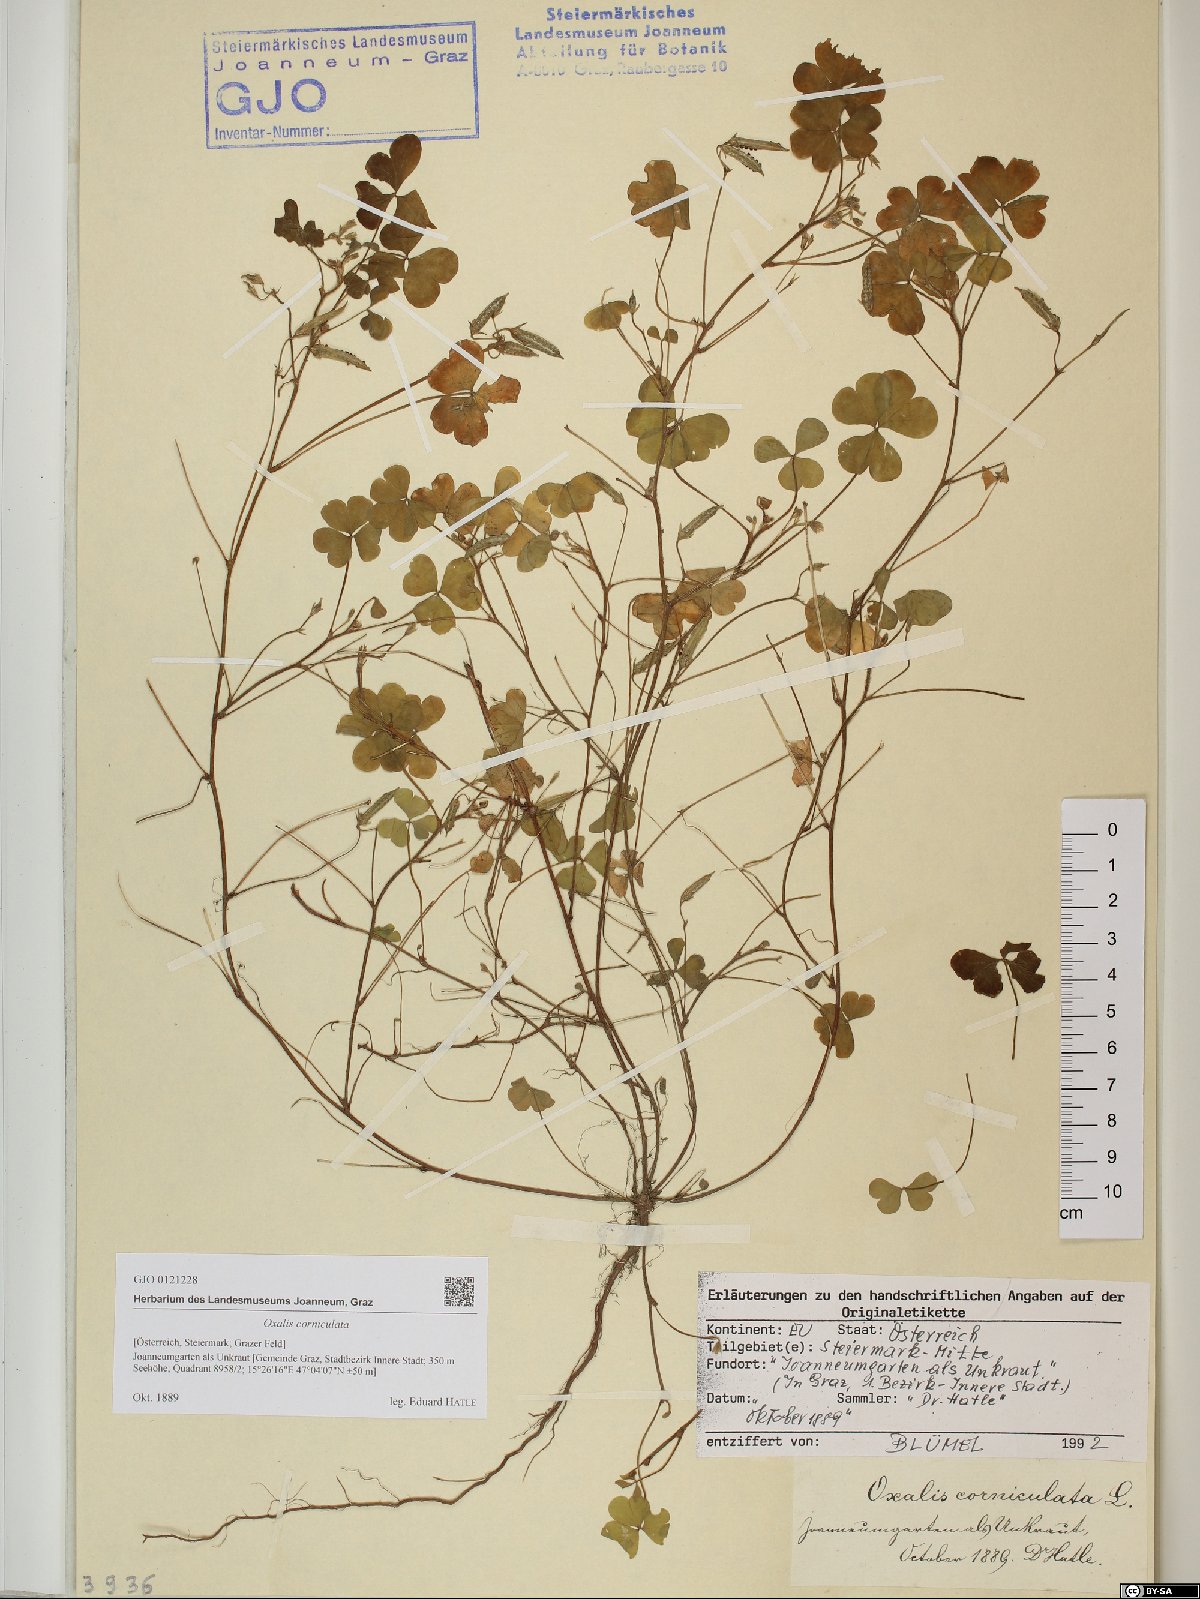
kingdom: Plantae
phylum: Tracheophyta
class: Magnoliopsida
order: Oxalidales
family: Oxalidaceae
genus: Oxalis
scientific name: Oxalis corniculata
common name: Procumbent yellow-sorrel
